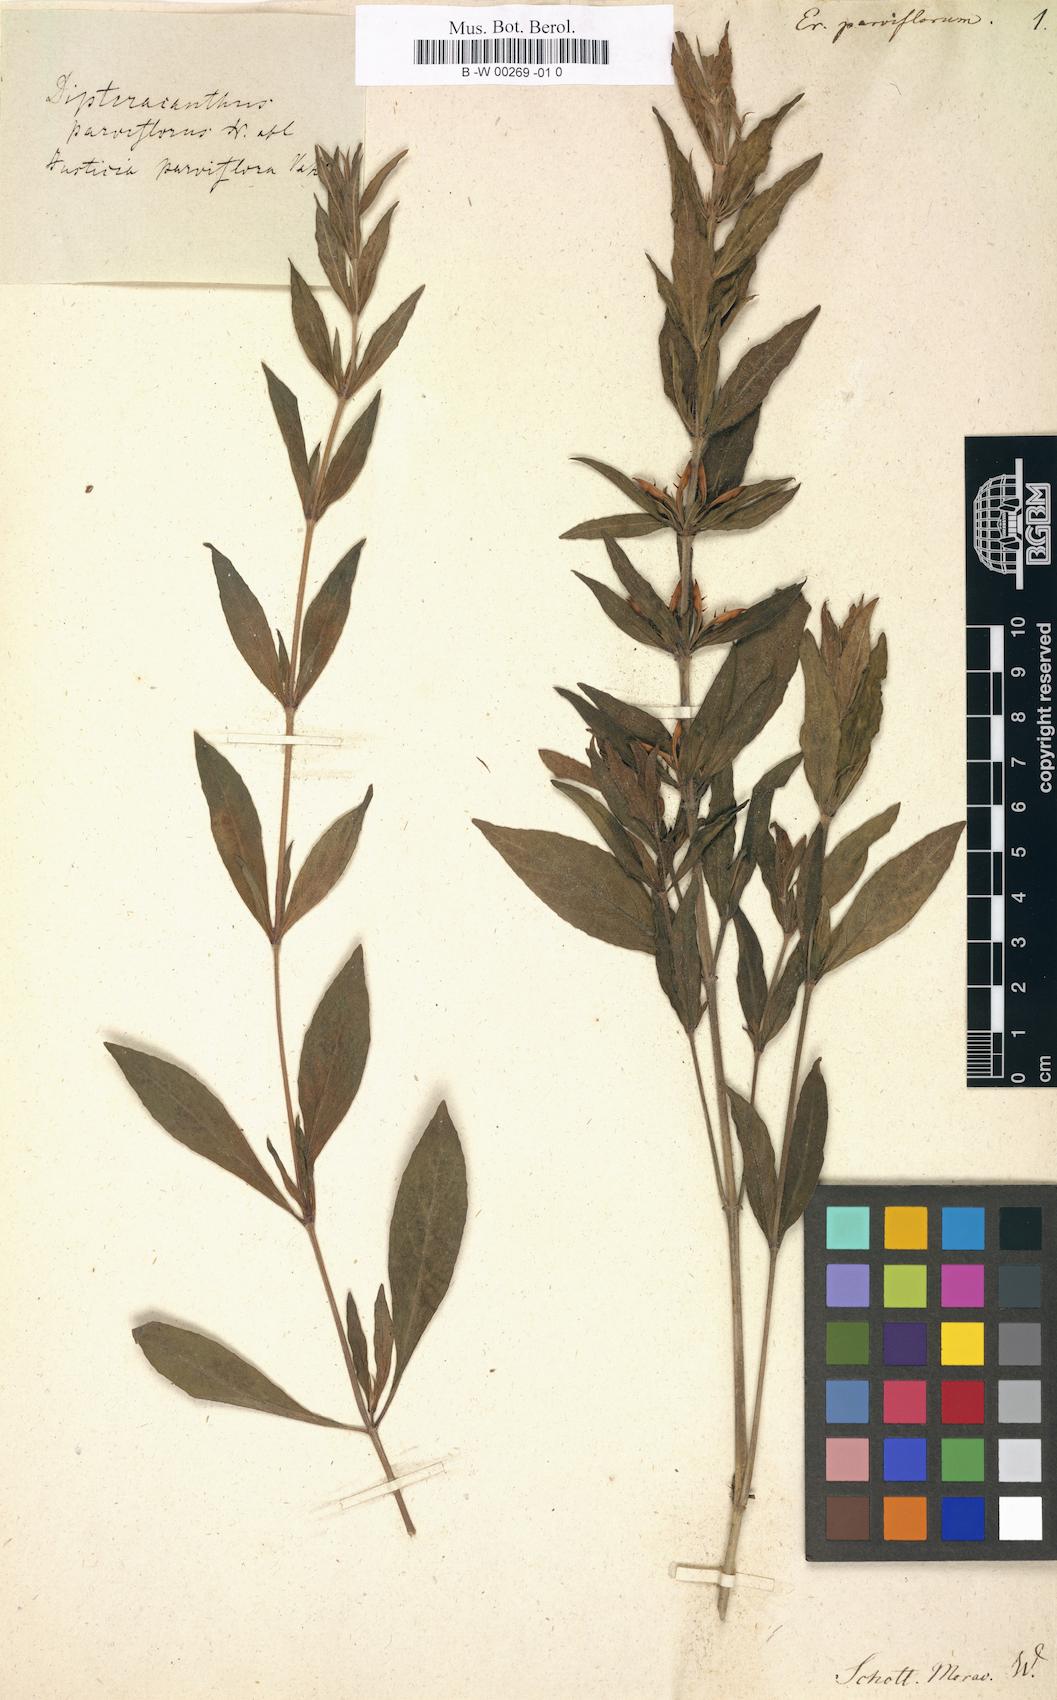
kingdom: Plantae
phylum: Tracheophyta
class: Magnoliopsida
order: Lamiales
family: Acanthaceae
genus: Justicia
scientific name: Justicia salviiflora
